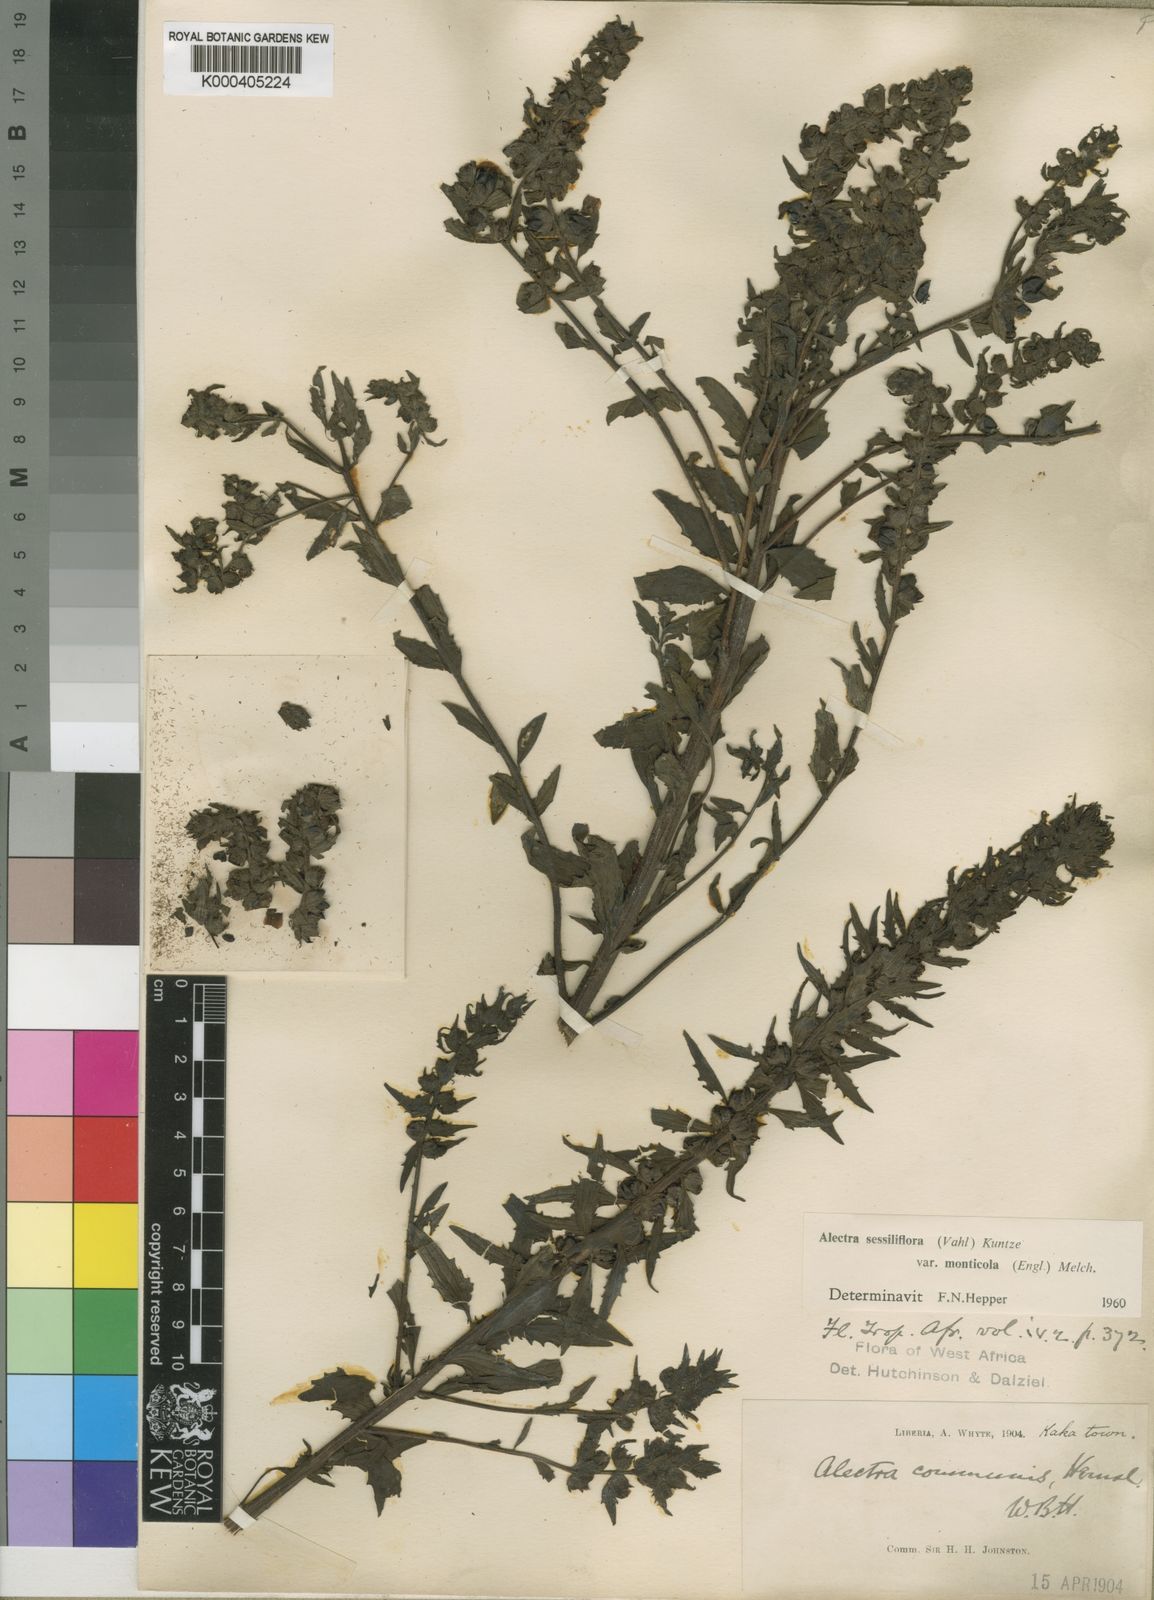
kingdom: Plantae
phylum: Tracheophyta
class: Magnoliopsida
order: Lamiales
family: Orobanchaceae
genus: Alectra
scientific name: Alectra sessiliflora
